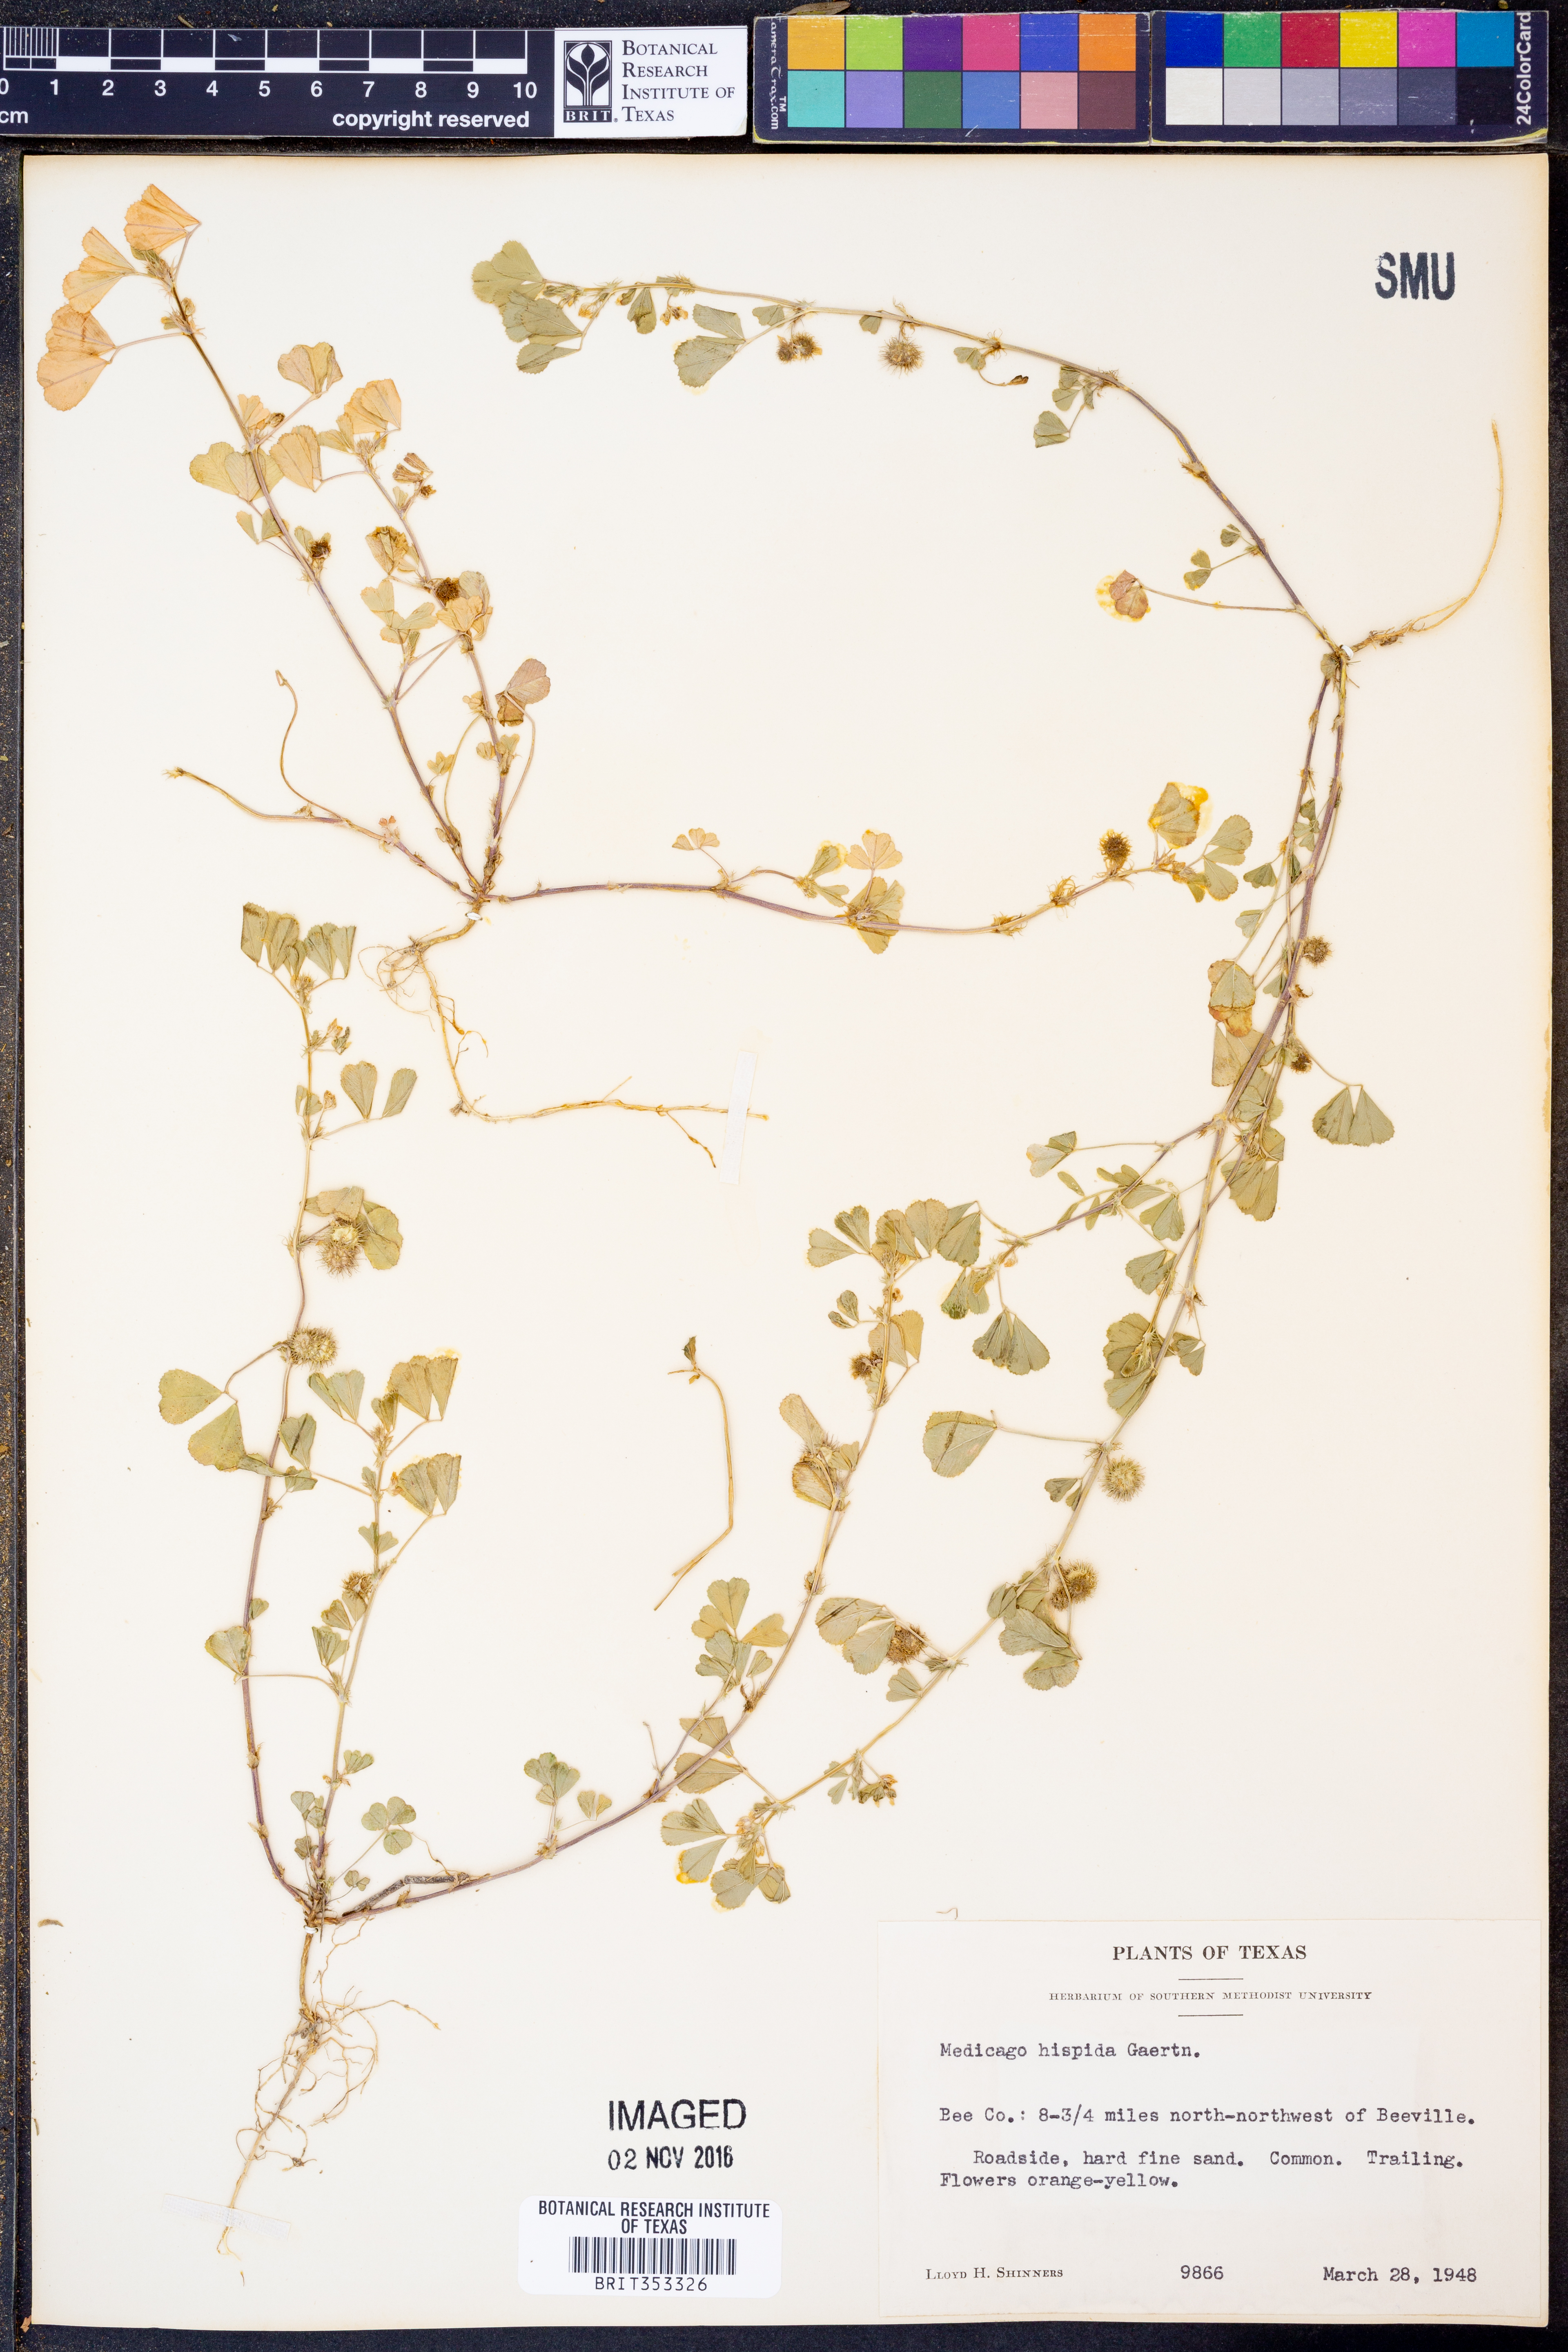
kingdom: Plantae
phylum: Tracheophyta
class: Magnoliopsida
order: Fabales
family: Fabaceae
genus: Medicago
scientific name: Medicago polymorpha
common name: Burclover
